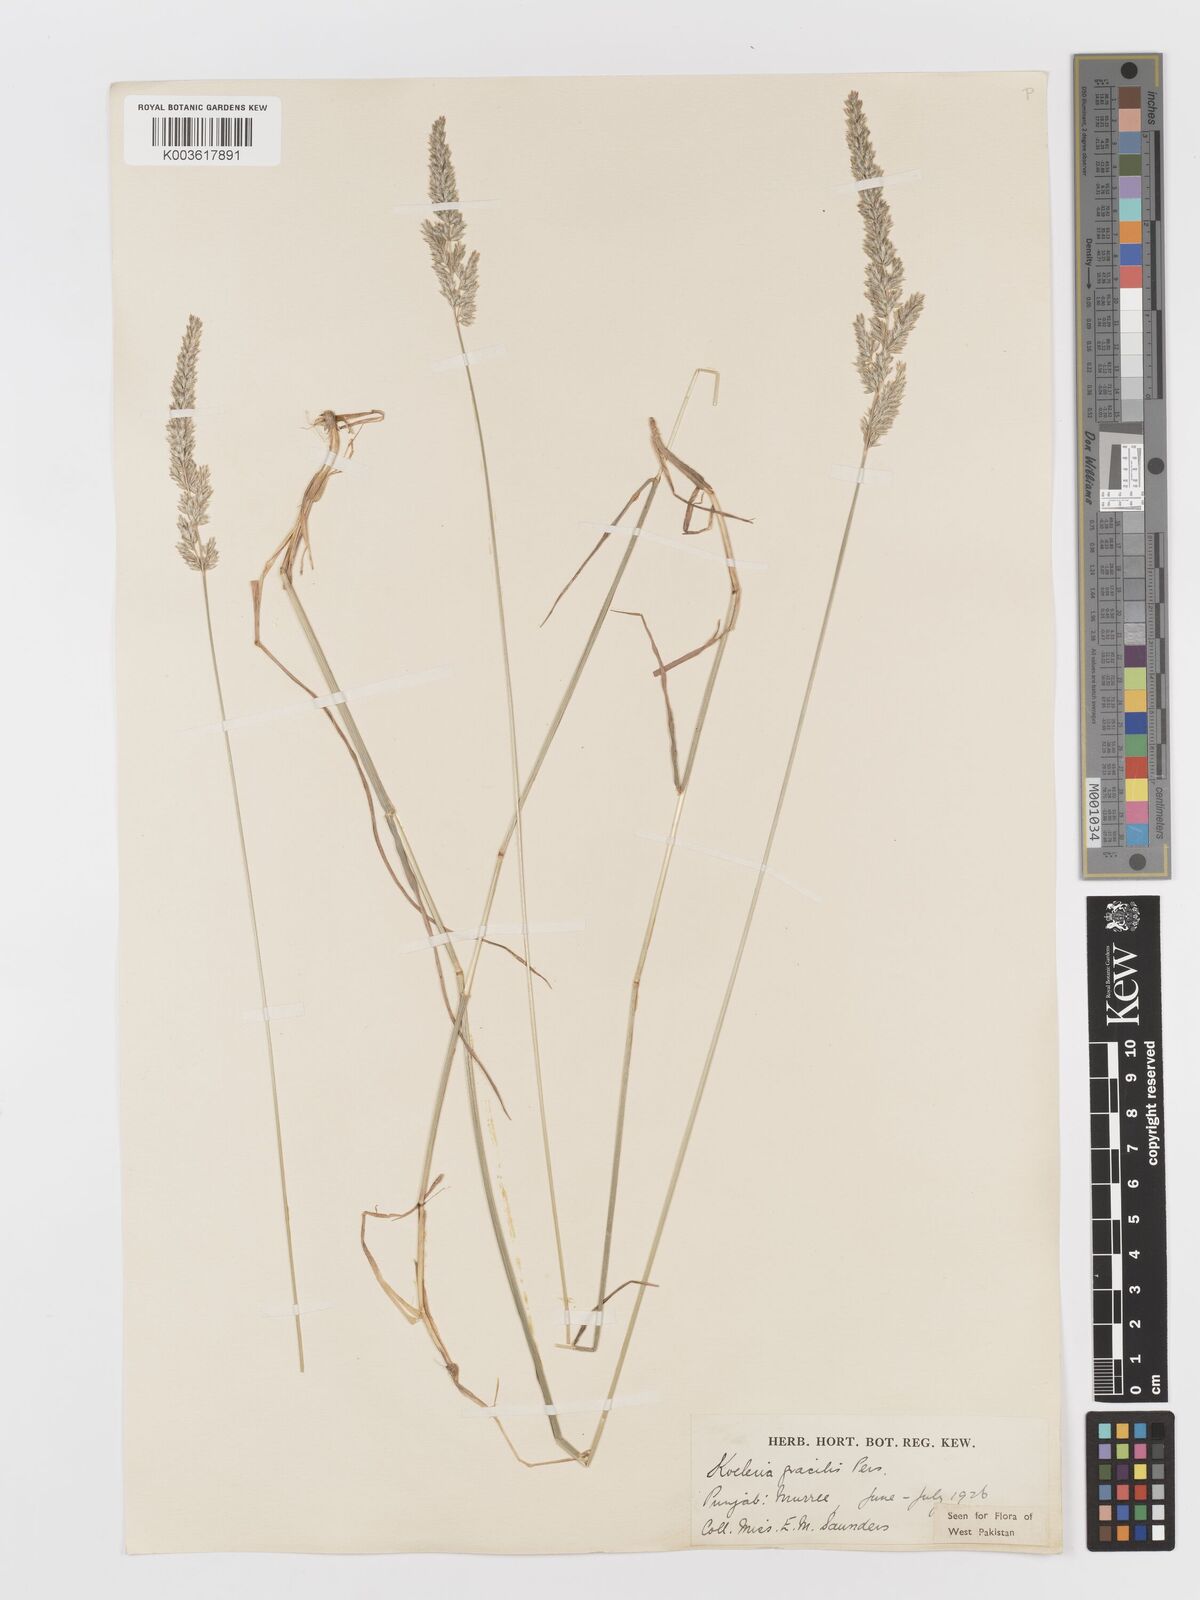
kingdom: Plantae
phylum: Tracheophyta
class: Liliopsida
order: Poales
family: Poaceae
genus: Koeleria
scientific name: Koeleria
